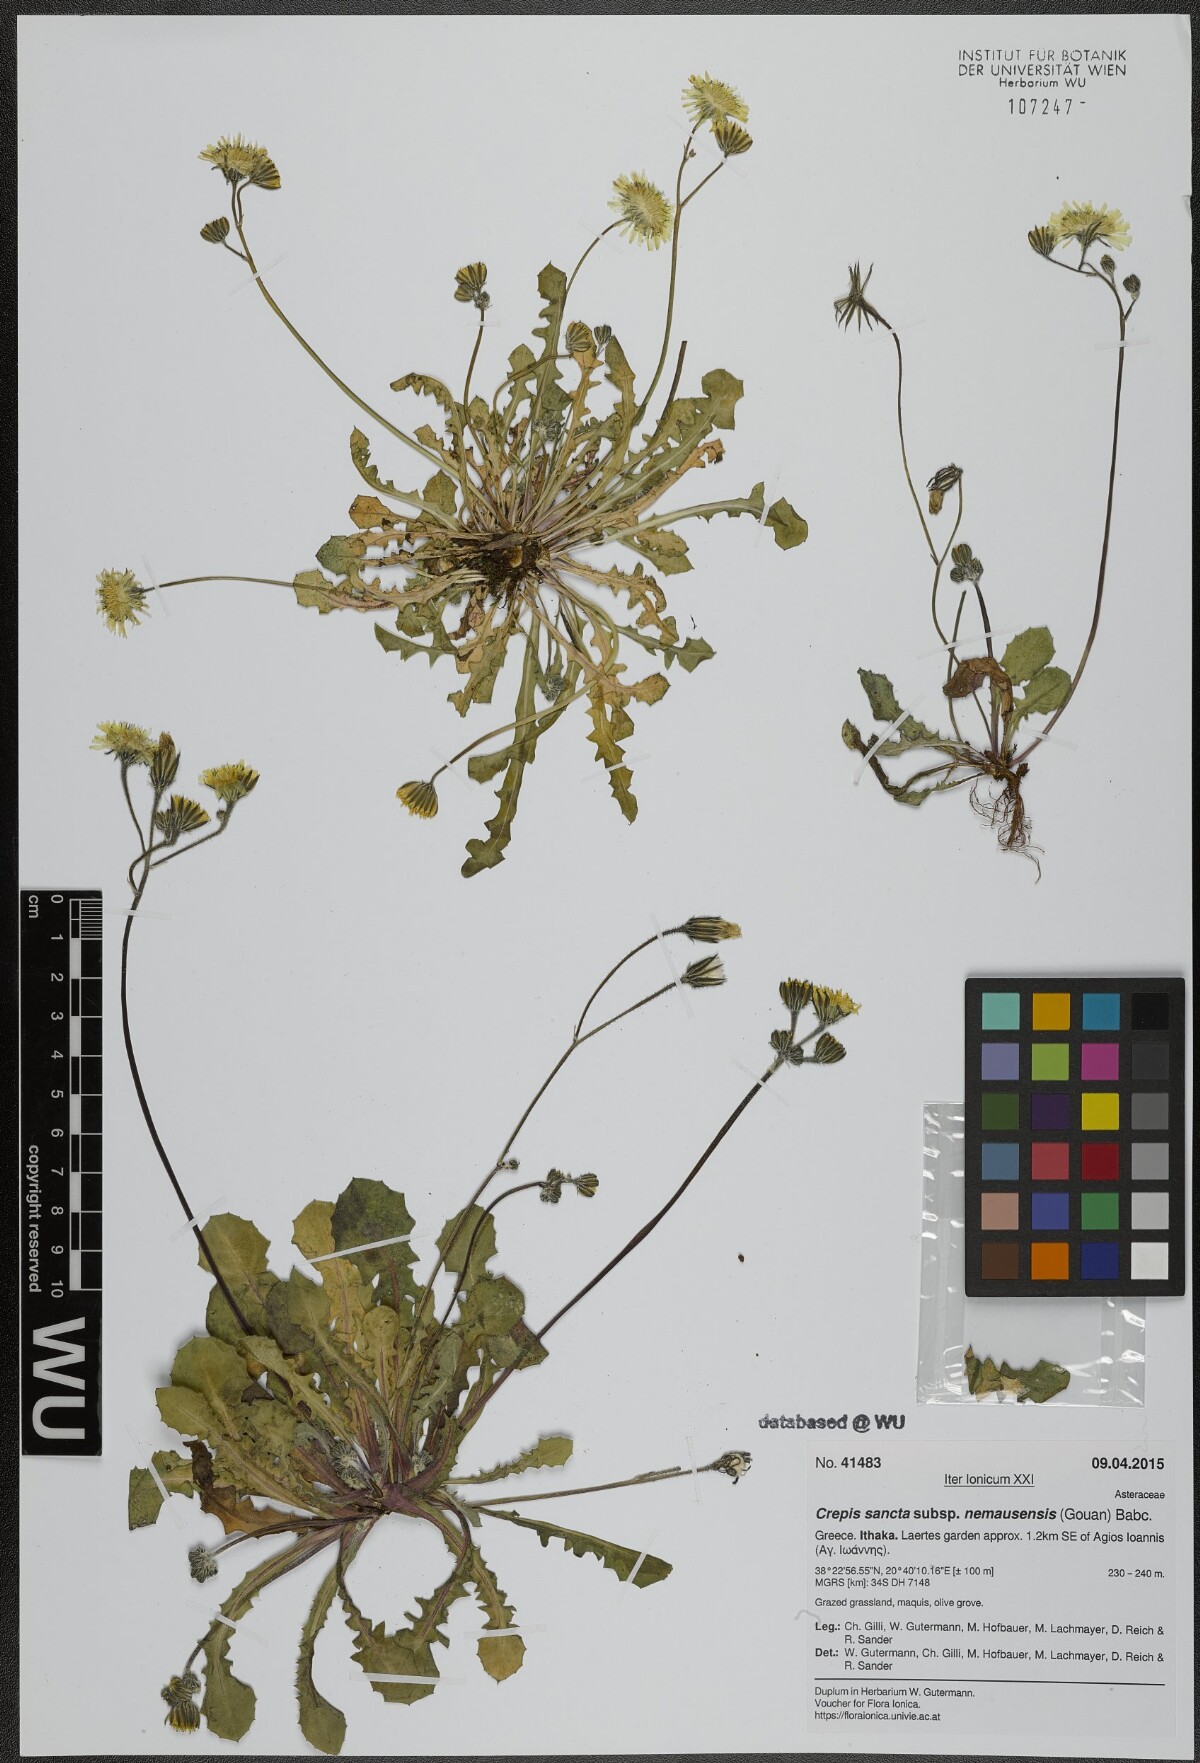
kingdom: Plantae
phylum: Tracheophyta
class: Magnoliopsida
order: Asterales
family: Asteraceae
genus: Crepis
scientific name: Crepis sancta
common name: Hawk's-beard
